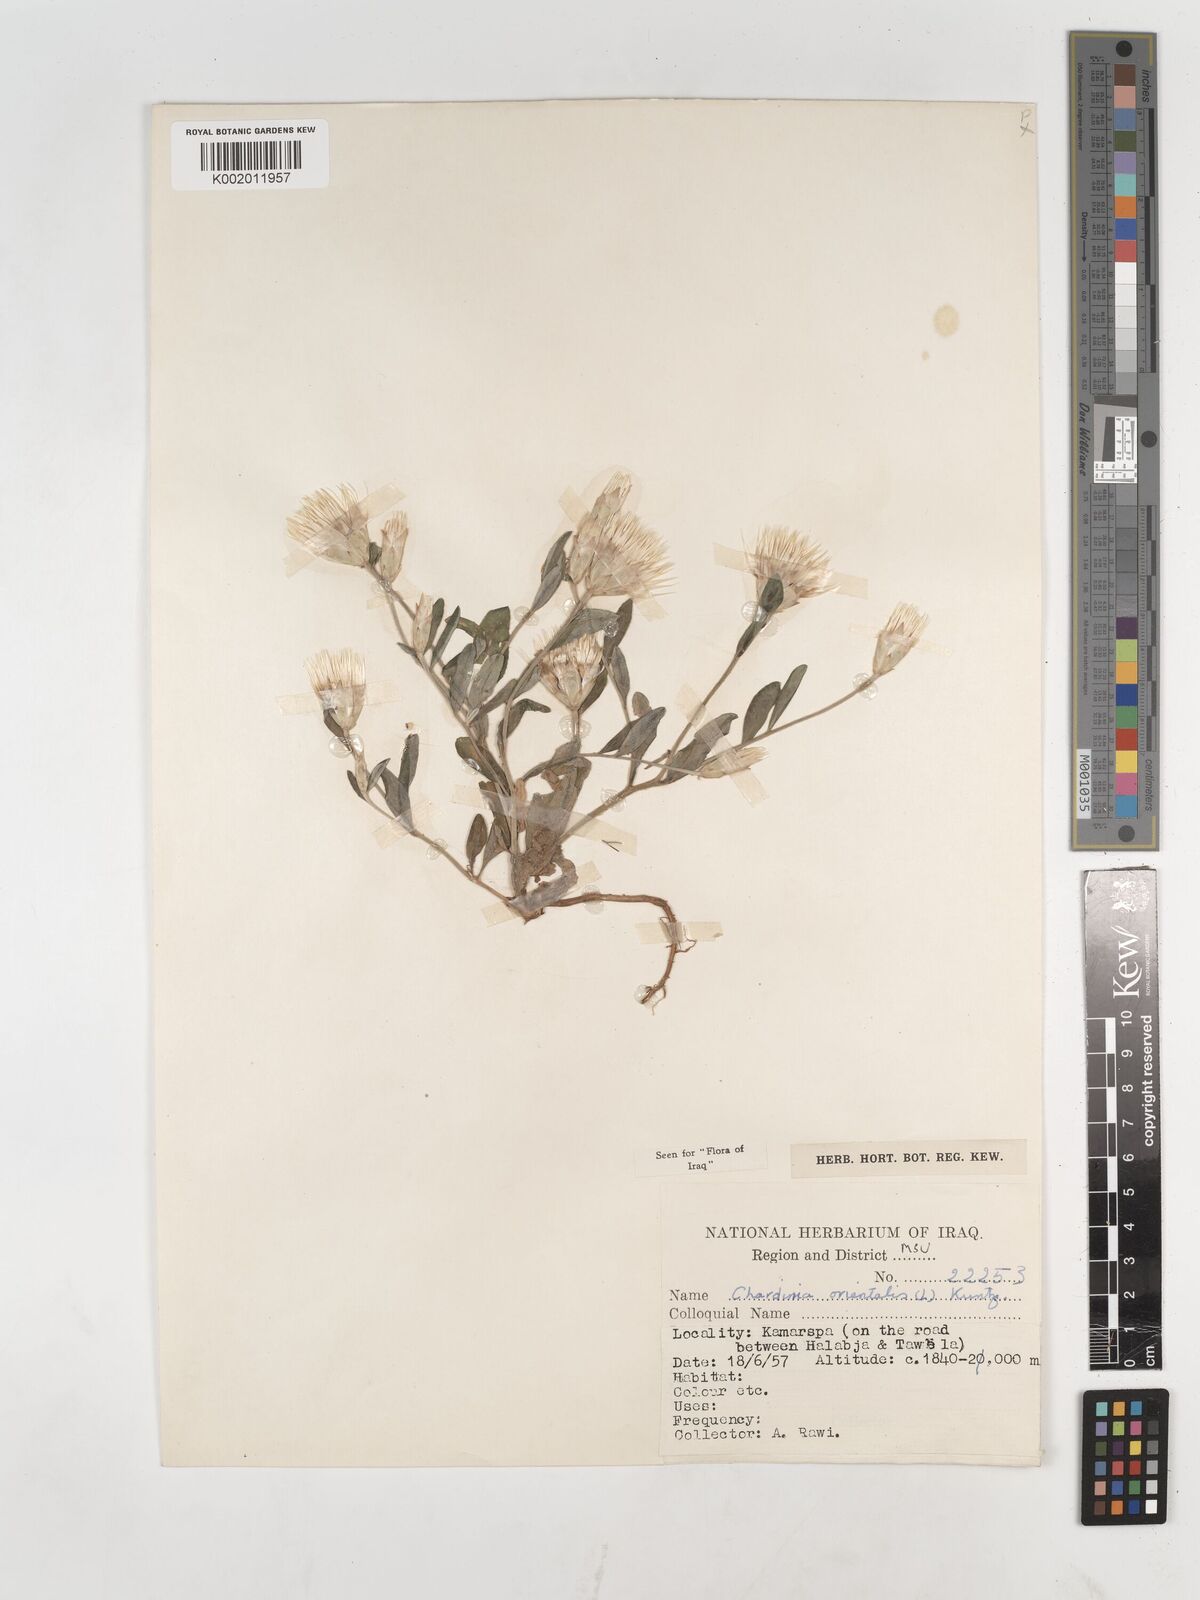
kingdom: Plantae
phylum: Tracheophyta
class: Magnoliopsida
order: Asterales
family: Asteraceae
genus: Chardinia
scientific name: Chardinia orientalis
